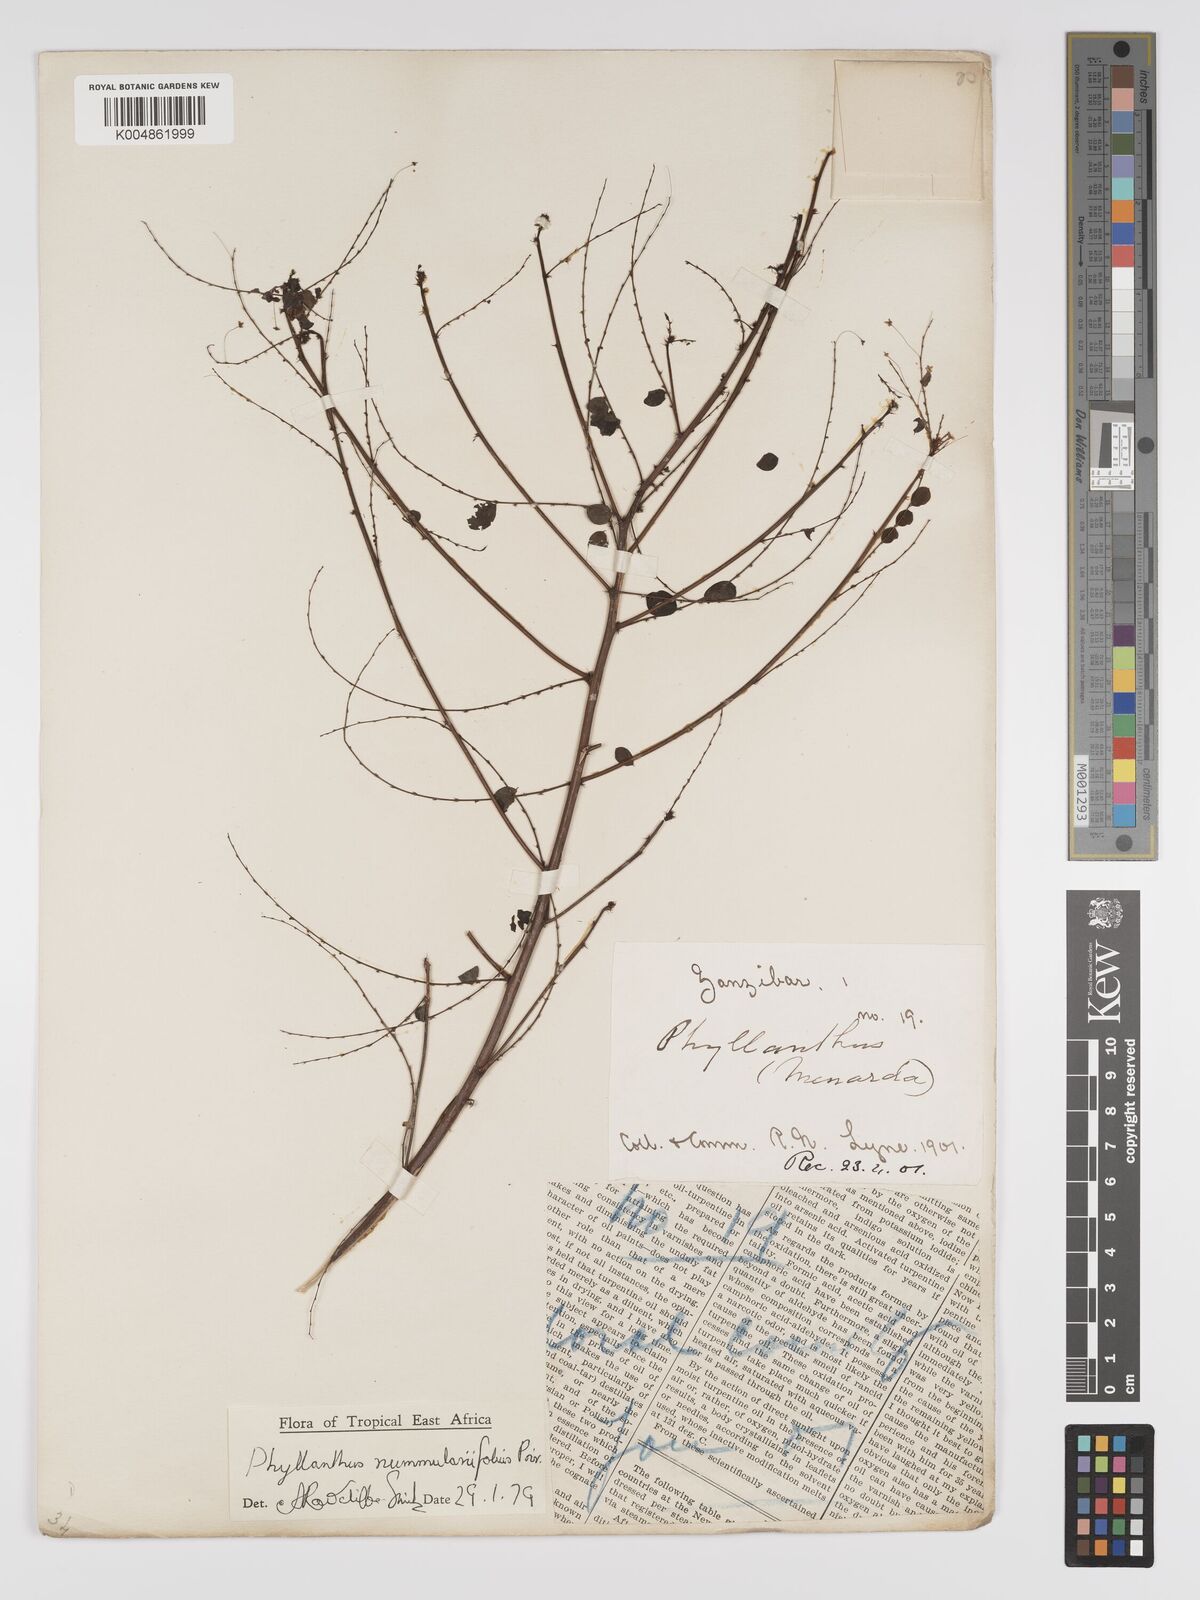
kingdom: Plantae
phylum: Tracheophyta
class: Magnoliopsida
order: Malpighiales
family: Phyllanthaceae
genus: Phyllanthus
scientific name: Phyllanthus nummulariifolius
